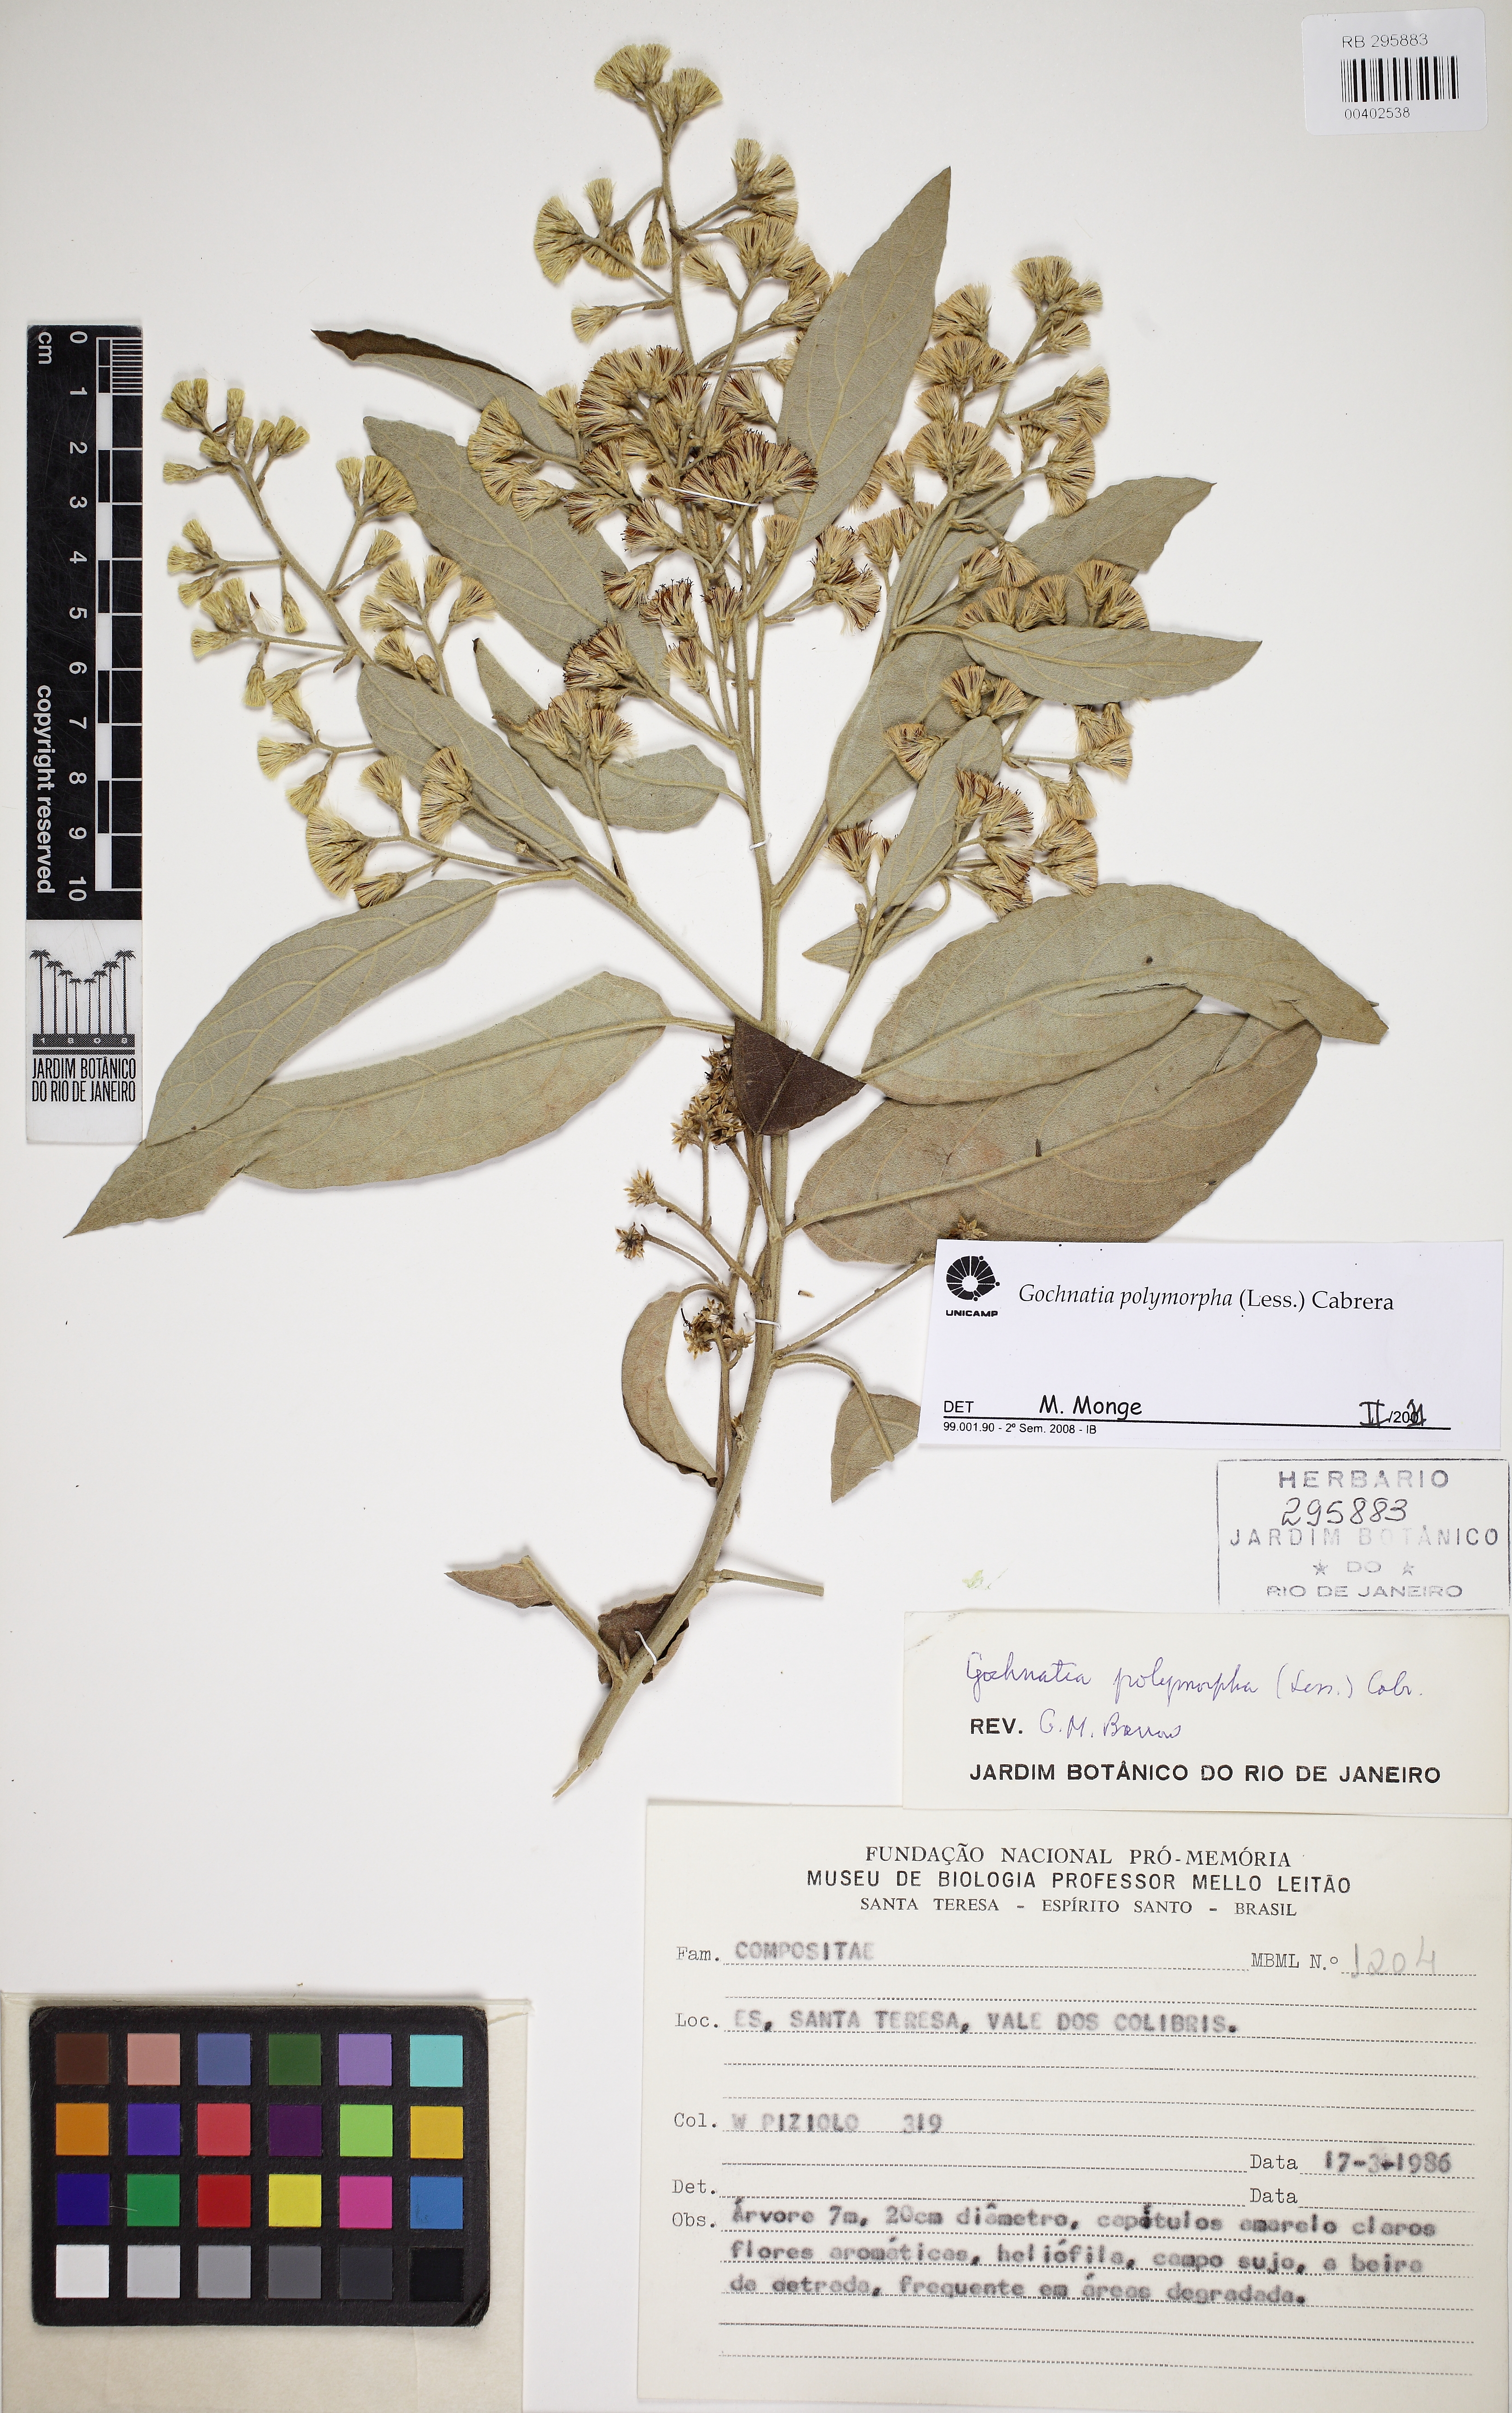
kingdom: Plantae
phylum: Tracheophyta
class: Magnoliopsida
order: Asterales
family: Asteraceae
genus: Moquiniastrum
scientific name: Moquiniastrum polymorphum
